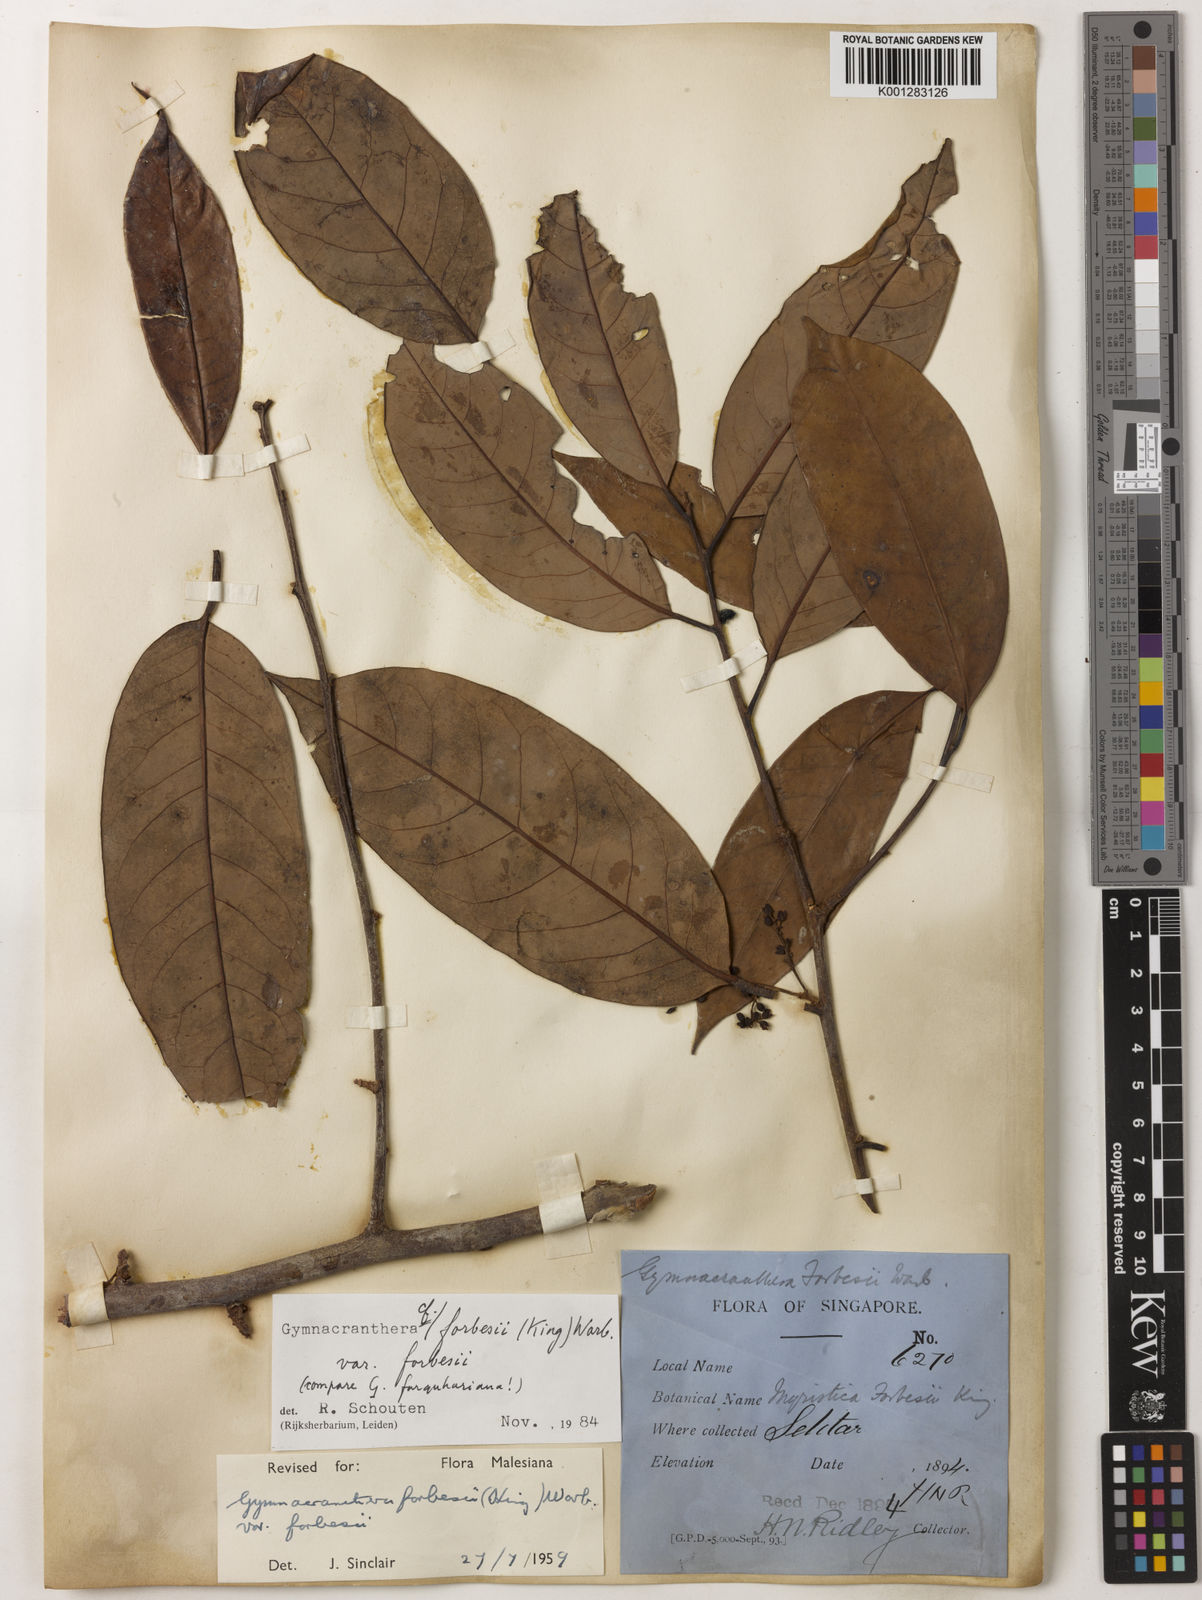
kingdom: Plantae
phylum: Tracheophyta
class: Magnoliopsida
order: Magnoliales
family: Myristicaceae
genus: Gymnacranthera
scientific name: Gymnacranthera forbesii
